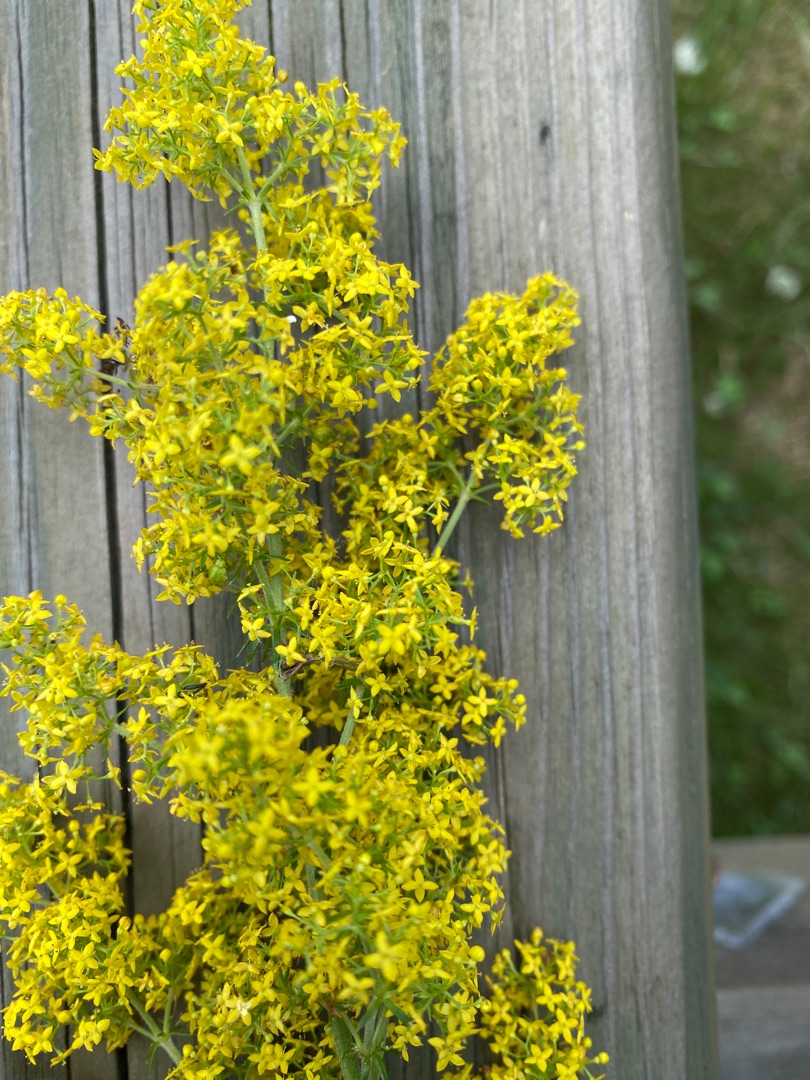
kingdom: Plantae
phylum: Tracheophyta
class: Magnoliopsida
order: Gentianales
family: Rubiaceae
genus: Galium
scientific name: Galium verum
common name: Gul snerre
